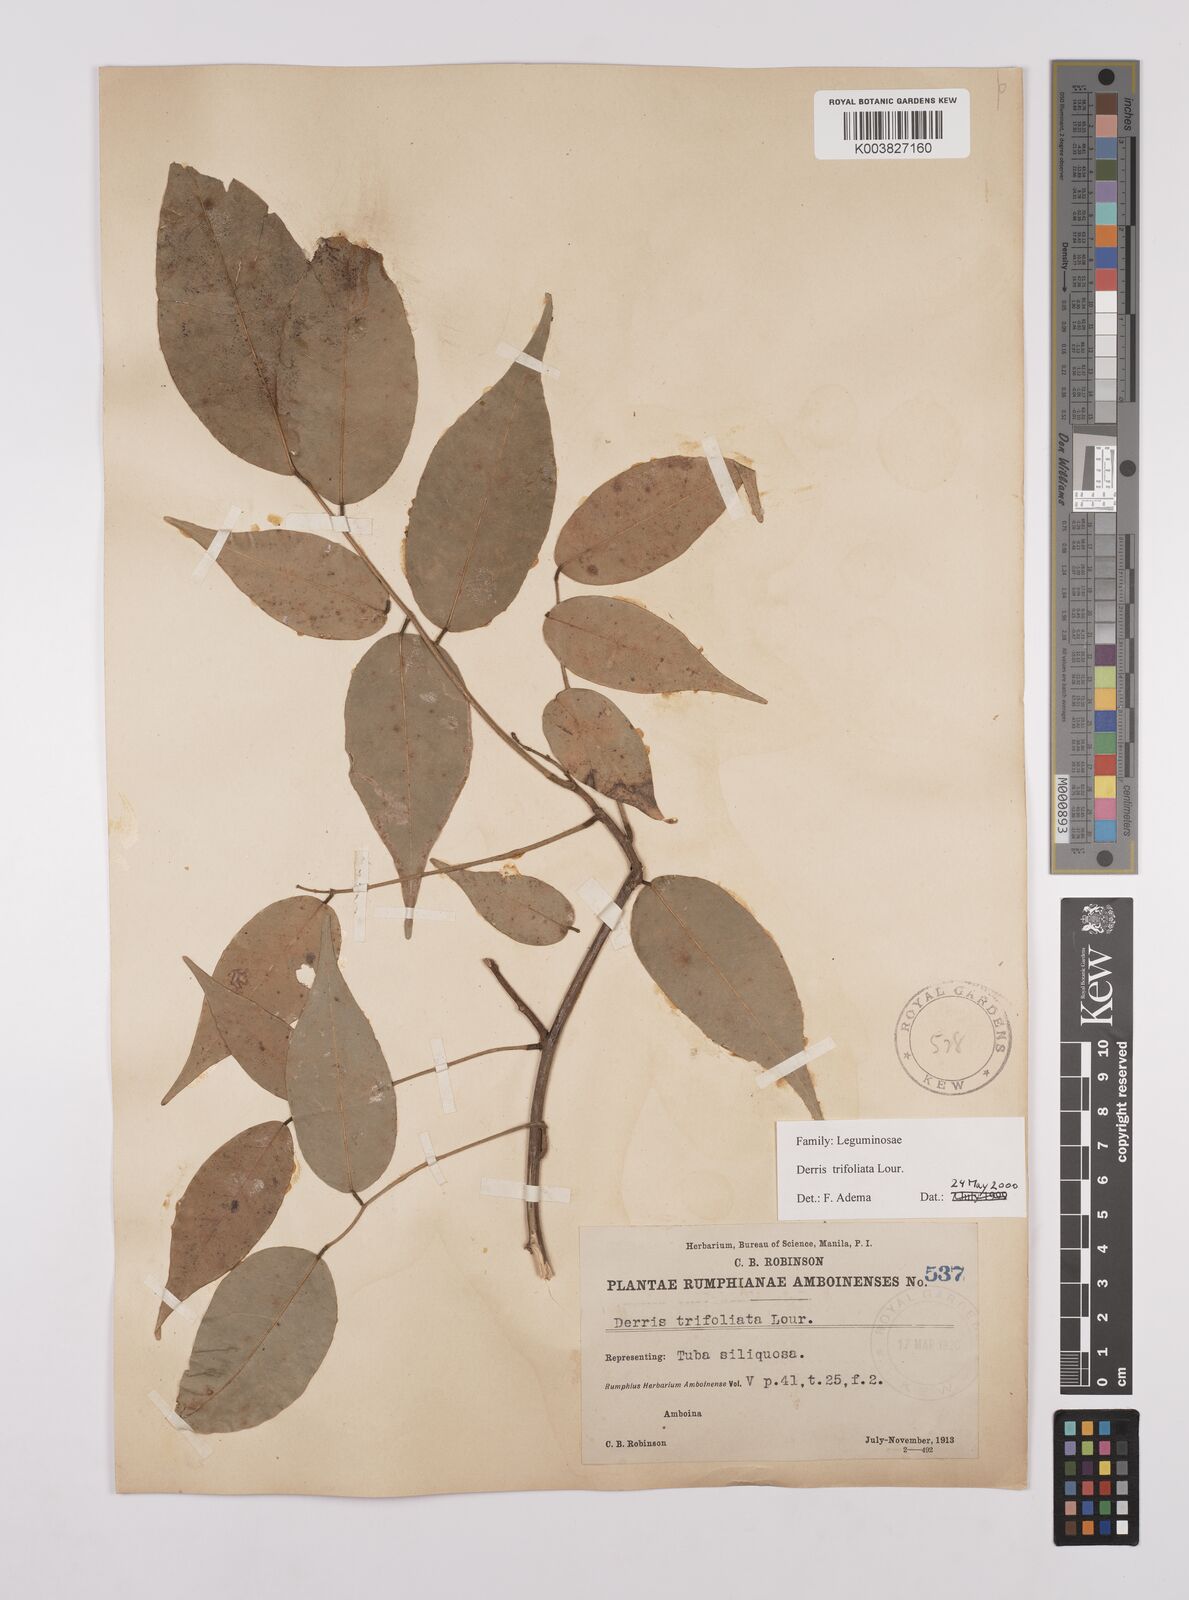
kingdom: Plantae
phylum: Tracheophyta
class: Magnoliopsida
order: Fabales
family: Fabaceae
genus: Derris
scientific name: Derris trifoliata
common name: Three-leaf derris
